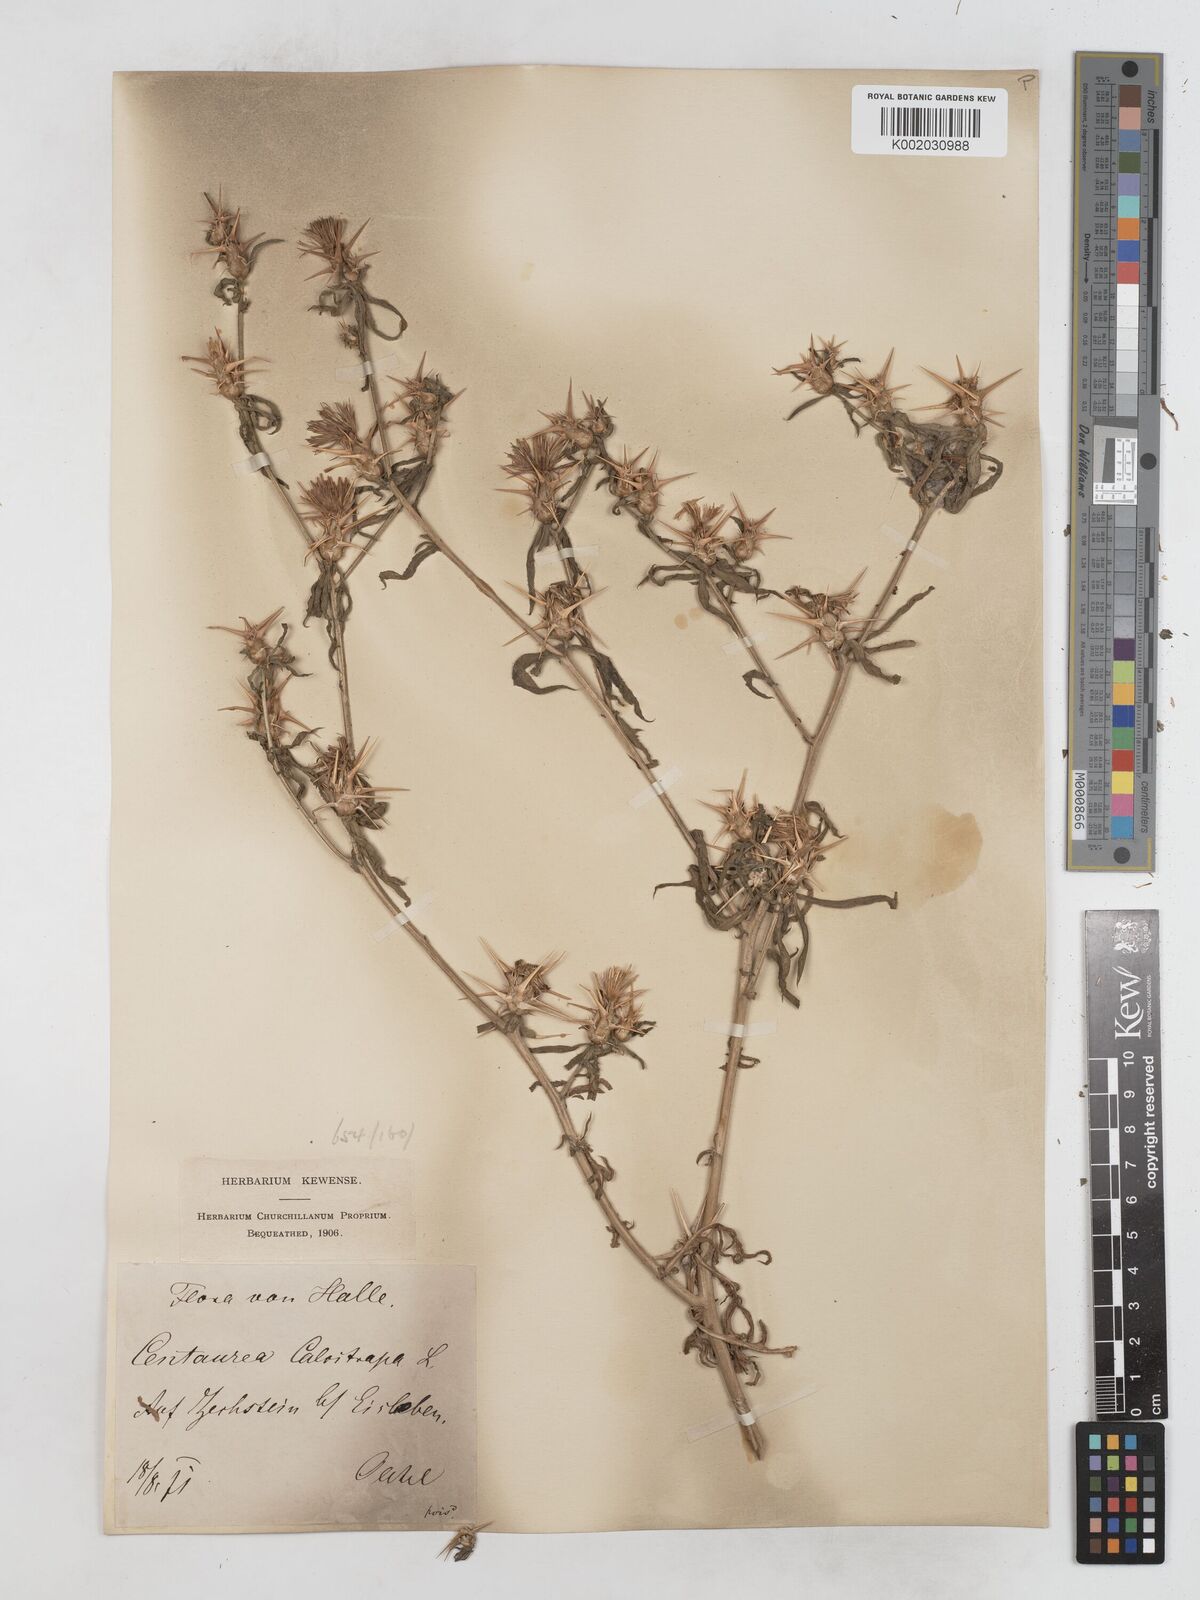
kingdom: Plantae
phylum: Tracheophyta
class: Magnoliopsida
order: Asterales
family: Asteraceae
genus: Centaurea
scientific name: Centaurea calcitrapa
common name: Red star-thistle
